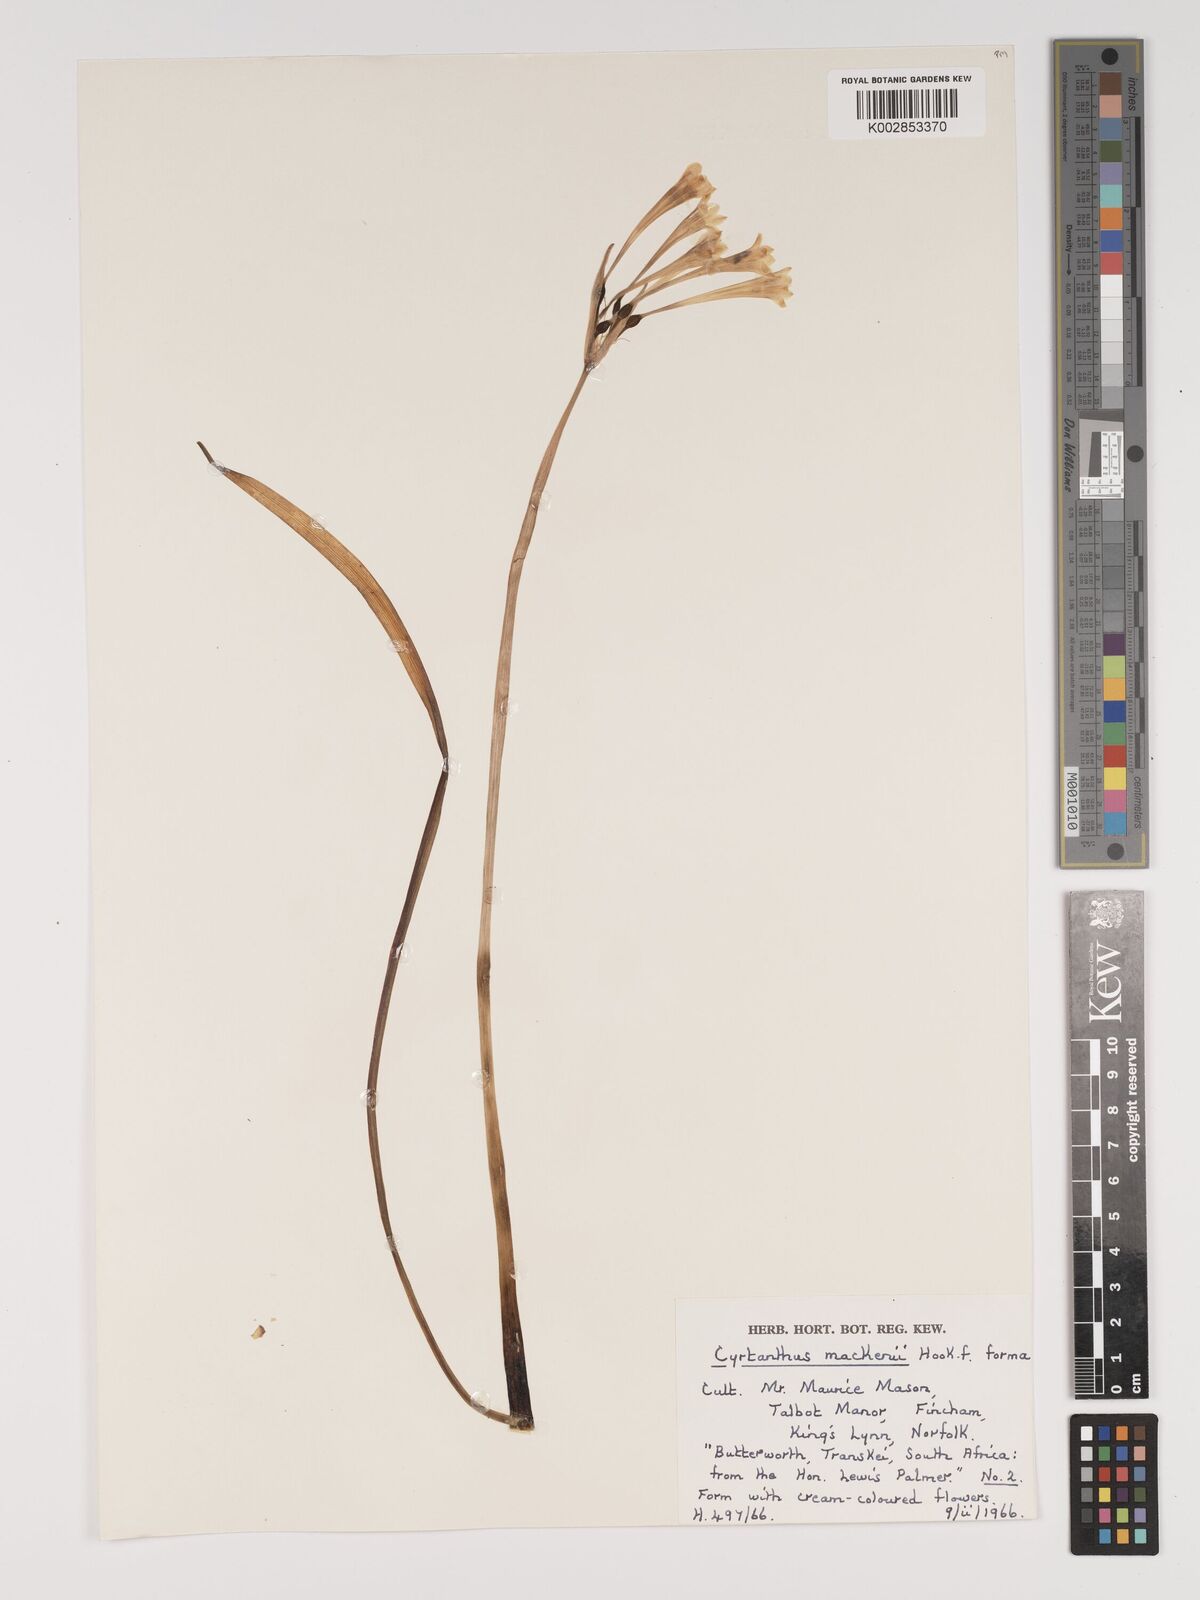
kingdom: Plantae
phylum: Tracheophyta
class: Liliopsida
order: Asparagales
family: Amaryllidaceae
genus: Cyrtanthus
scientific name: Cyrtanthus mackenii
